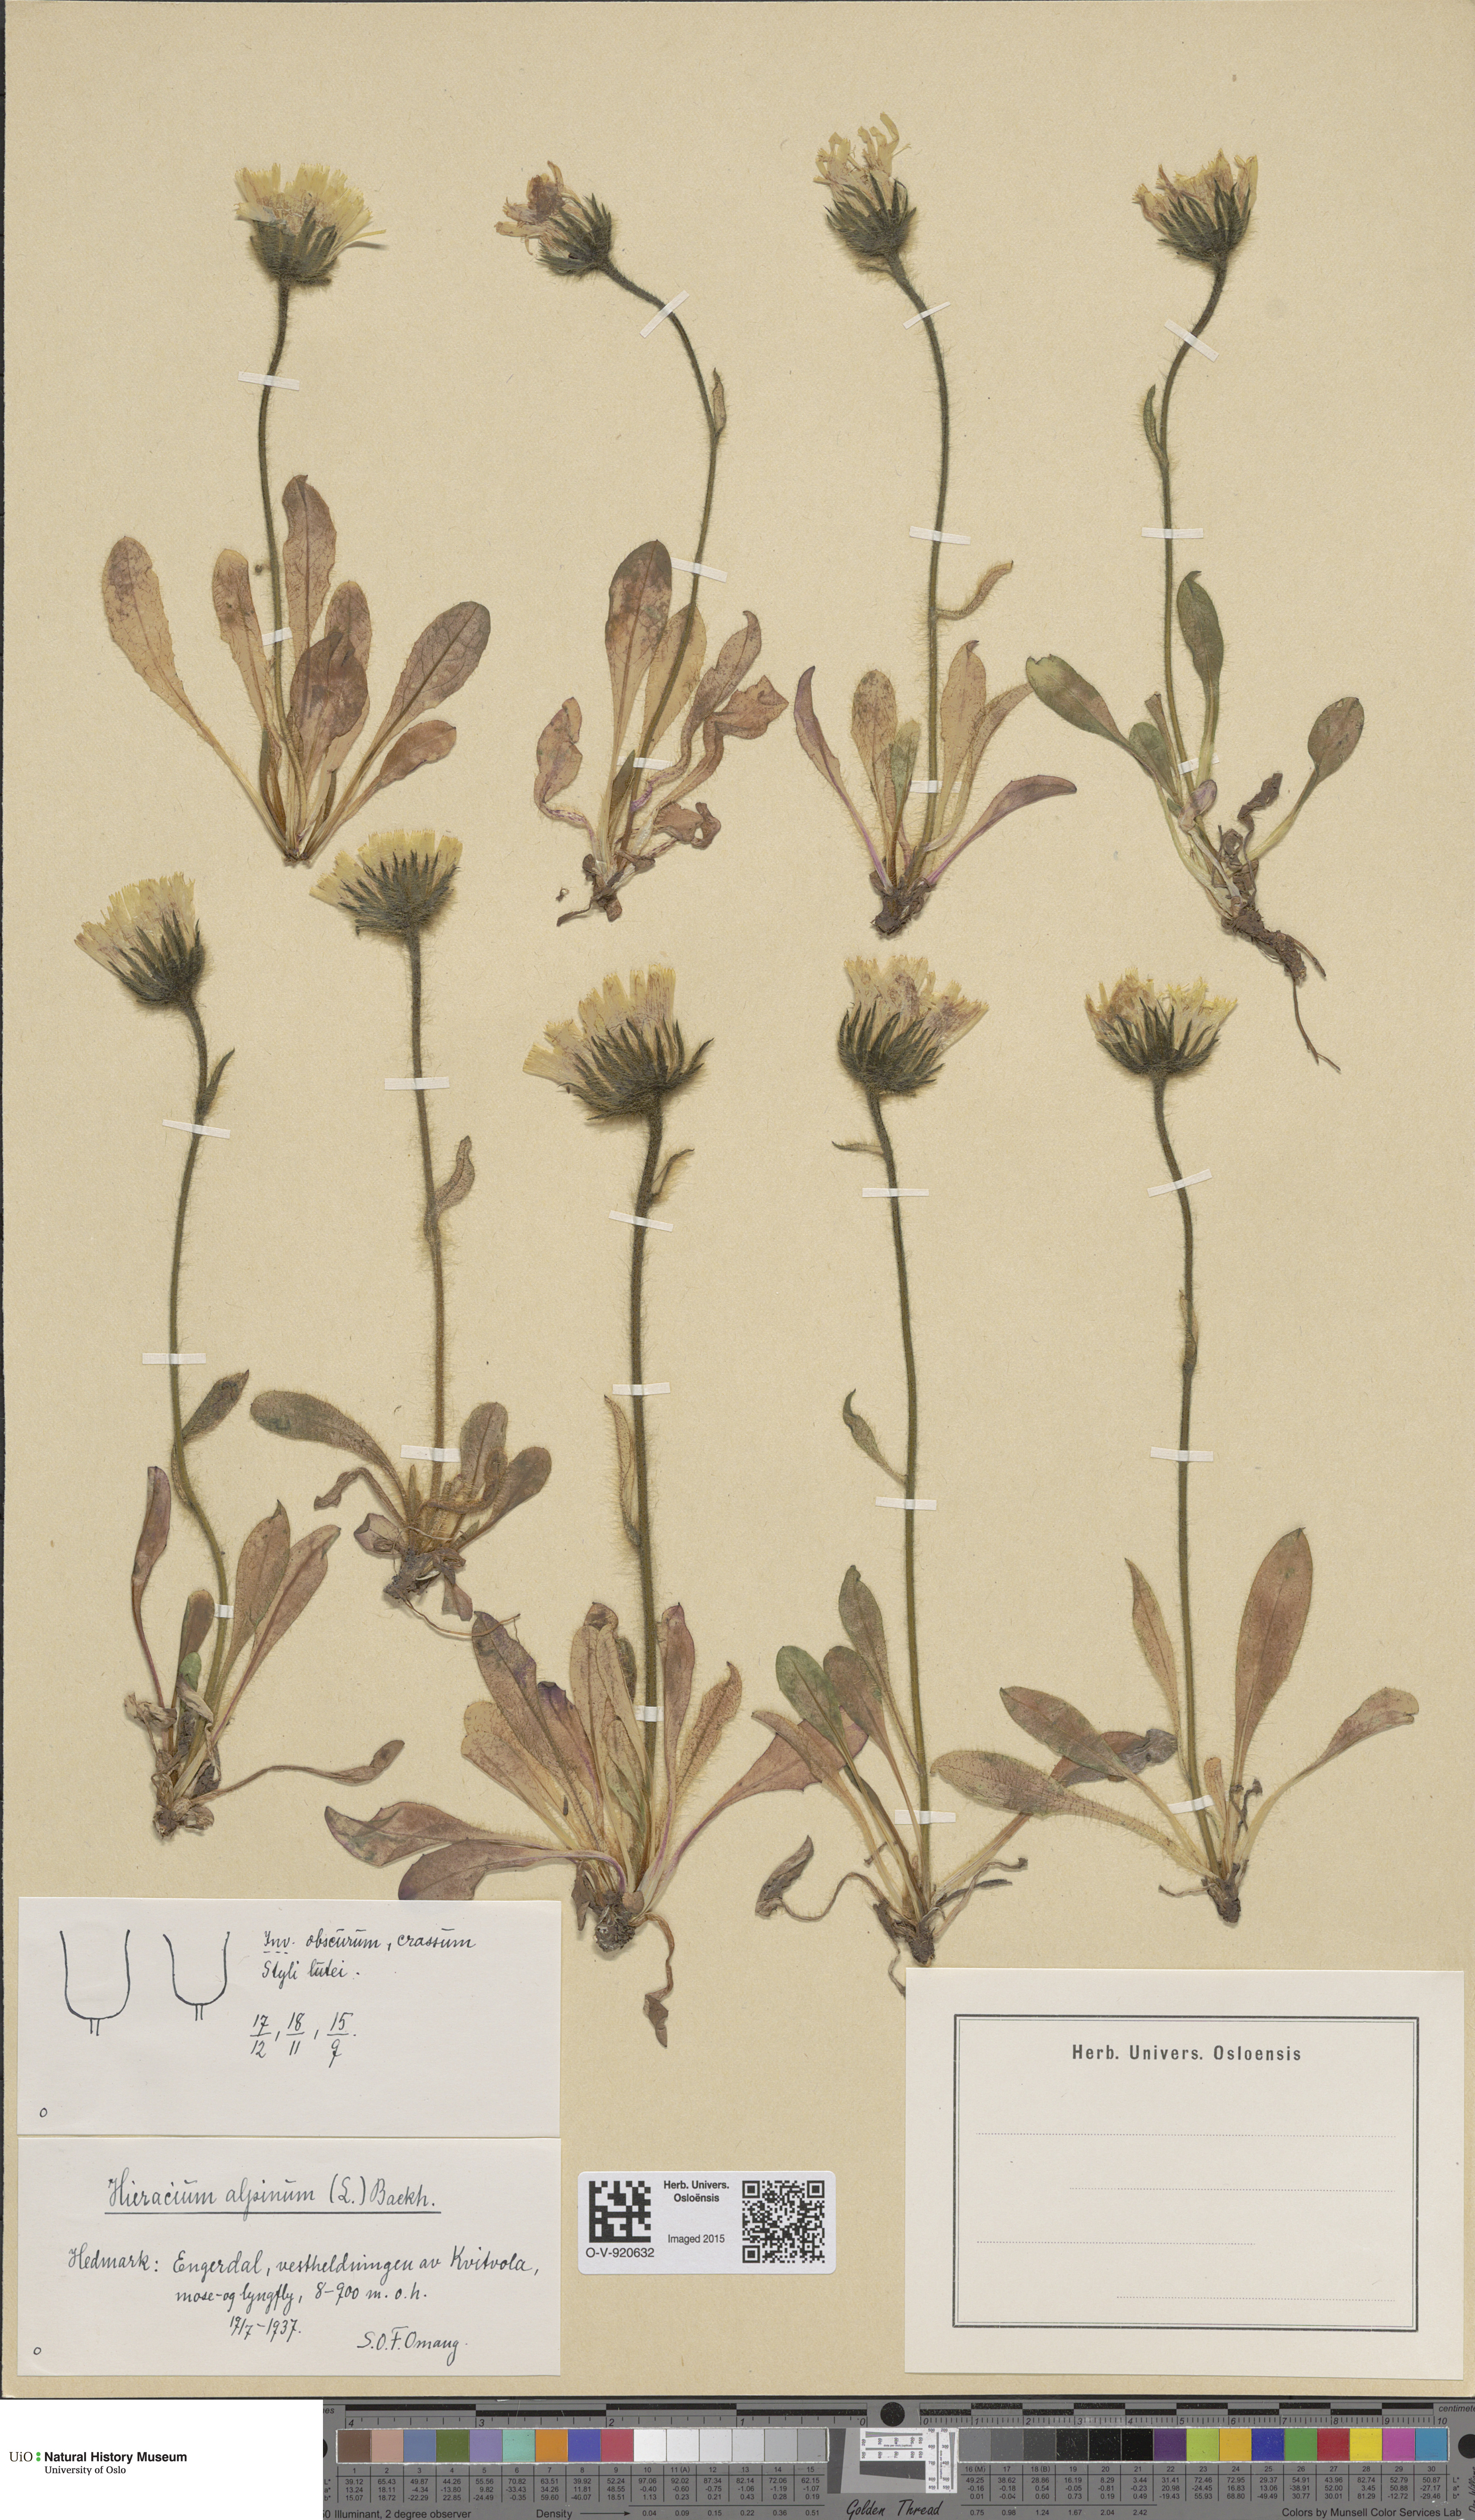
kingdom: Plantae
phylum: Tracheophyta
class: Magnoliopsida
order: Asterales
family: Asteraceae
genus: Hieracium
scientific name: Hieracium alpinum
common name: Alpine hawkweed
